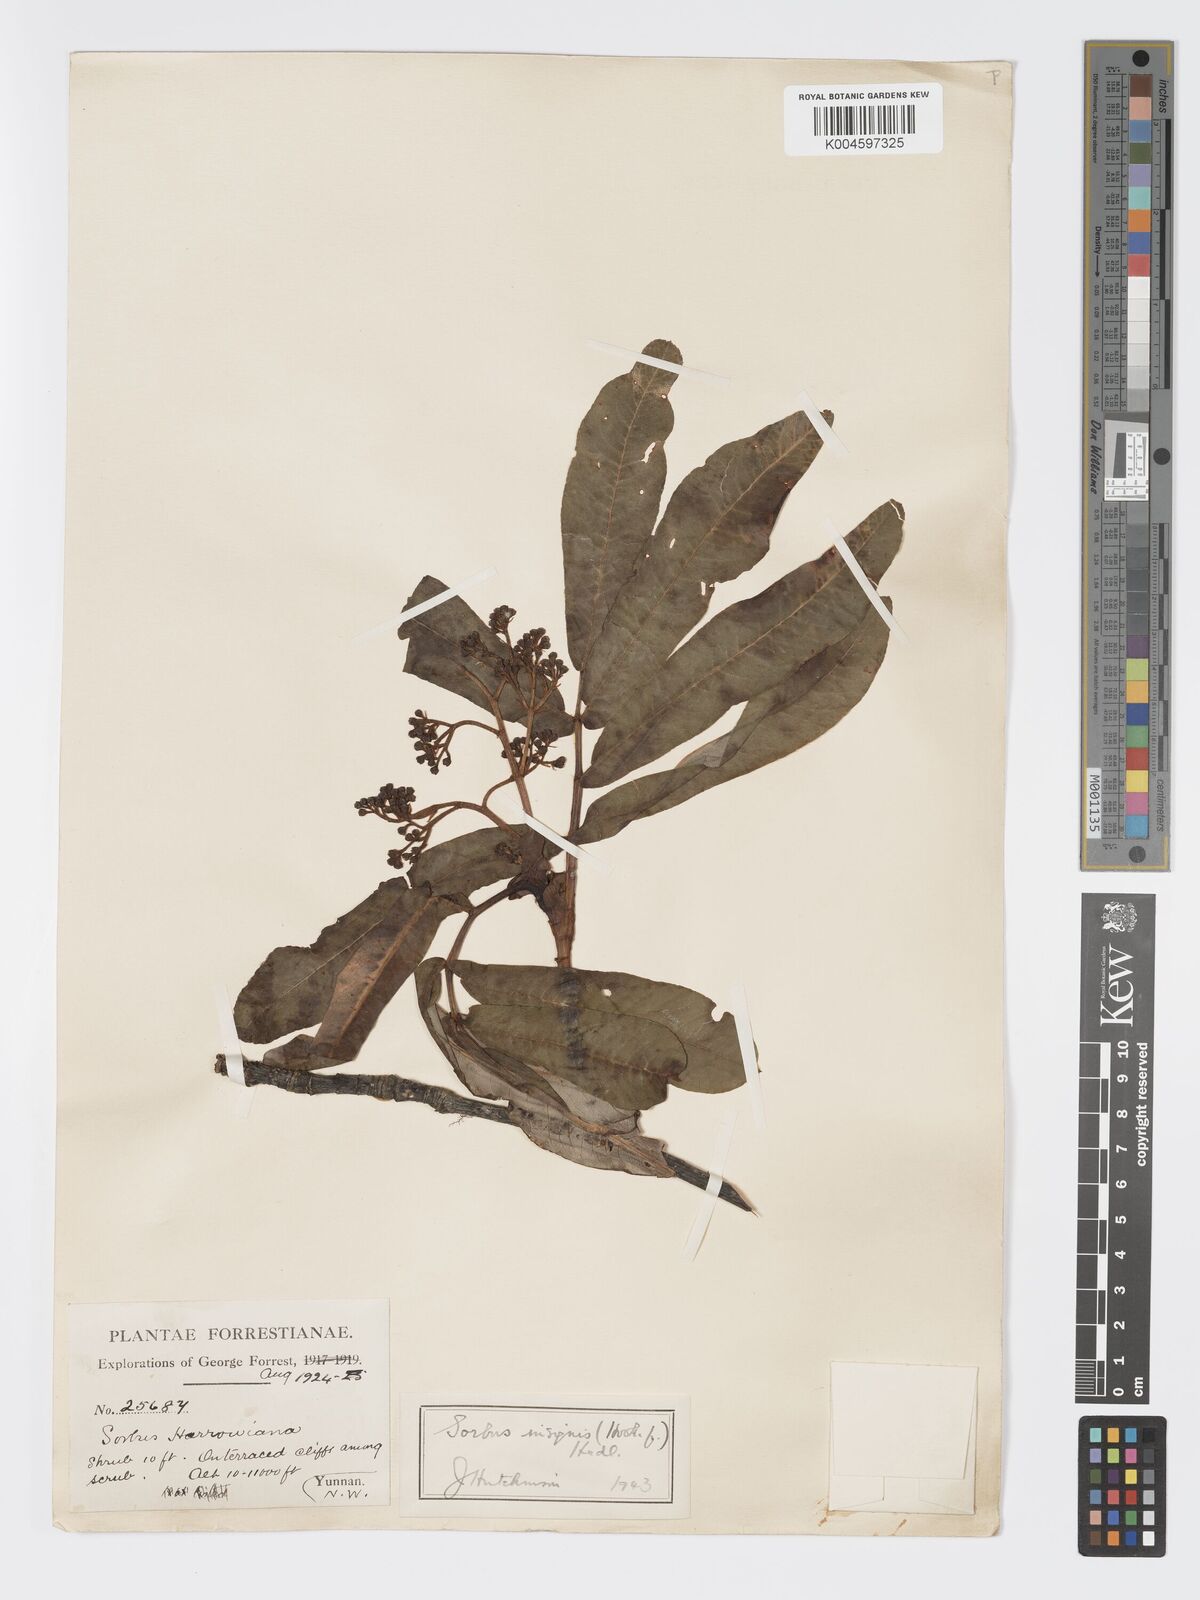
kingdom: Plantae
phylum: Tracheophyta
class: Magnoliopsida
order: Rosales
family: Rosaceae
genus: Sorbus
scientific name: Sorbus
